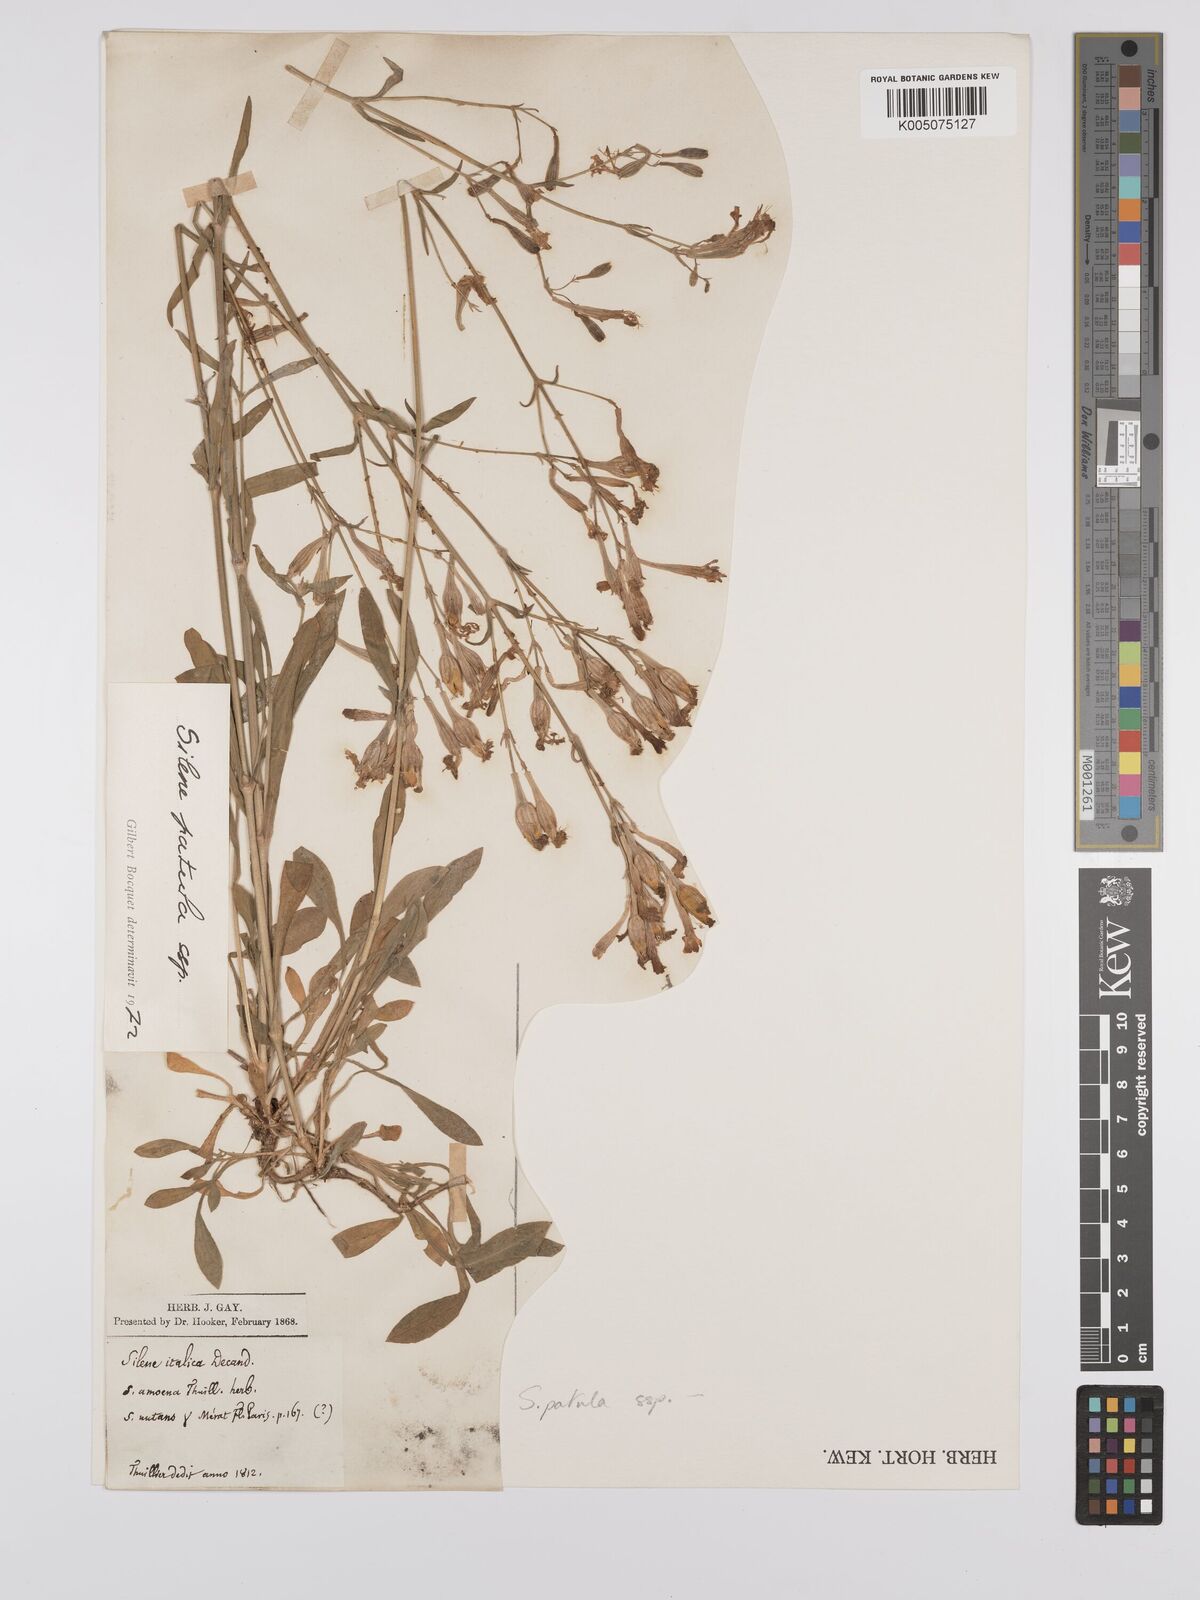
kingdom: Plantae
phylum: Tracheophyta
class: Magnoliopsida
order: Caryophyllales
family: Caryophyllaceae
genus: Silene
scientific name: Silene patula
